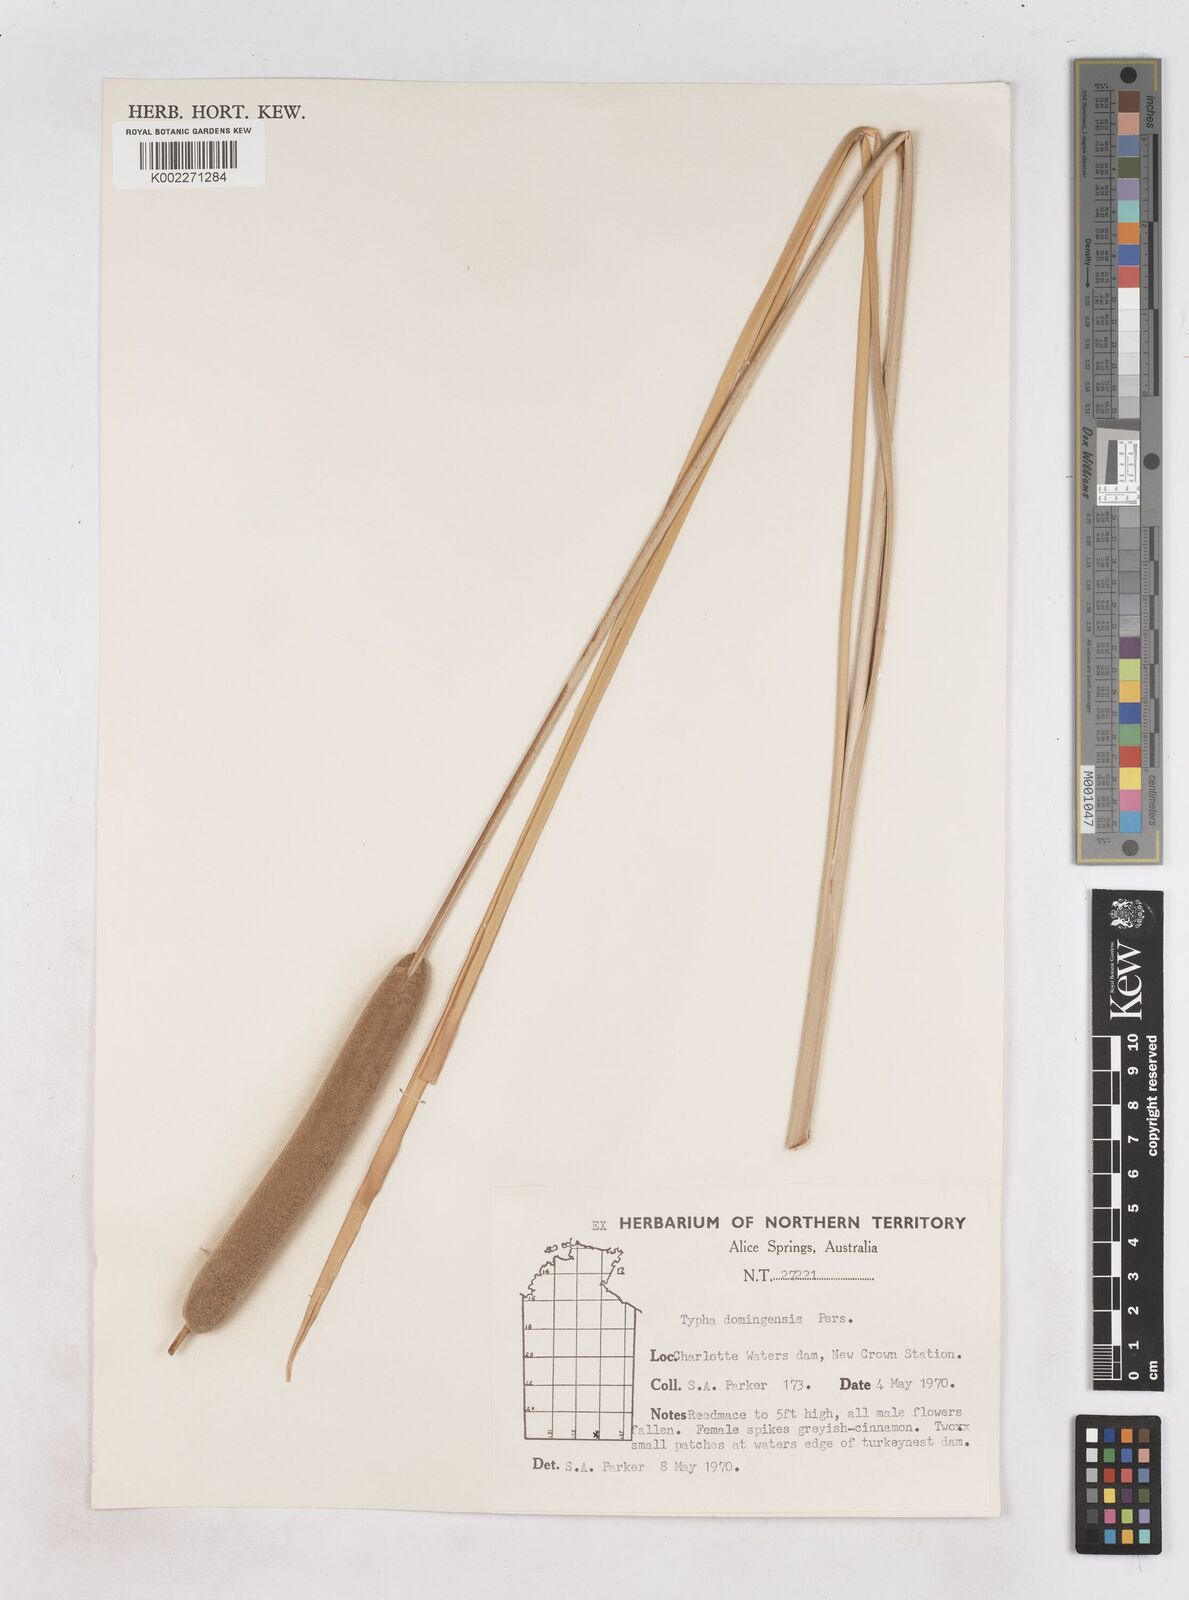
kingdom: Plantae
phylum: Tracheophyta
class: Liliopsida
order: Poales
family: Typhaceae
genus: Typha
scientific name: Typha domingensis
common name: Southern cattail
